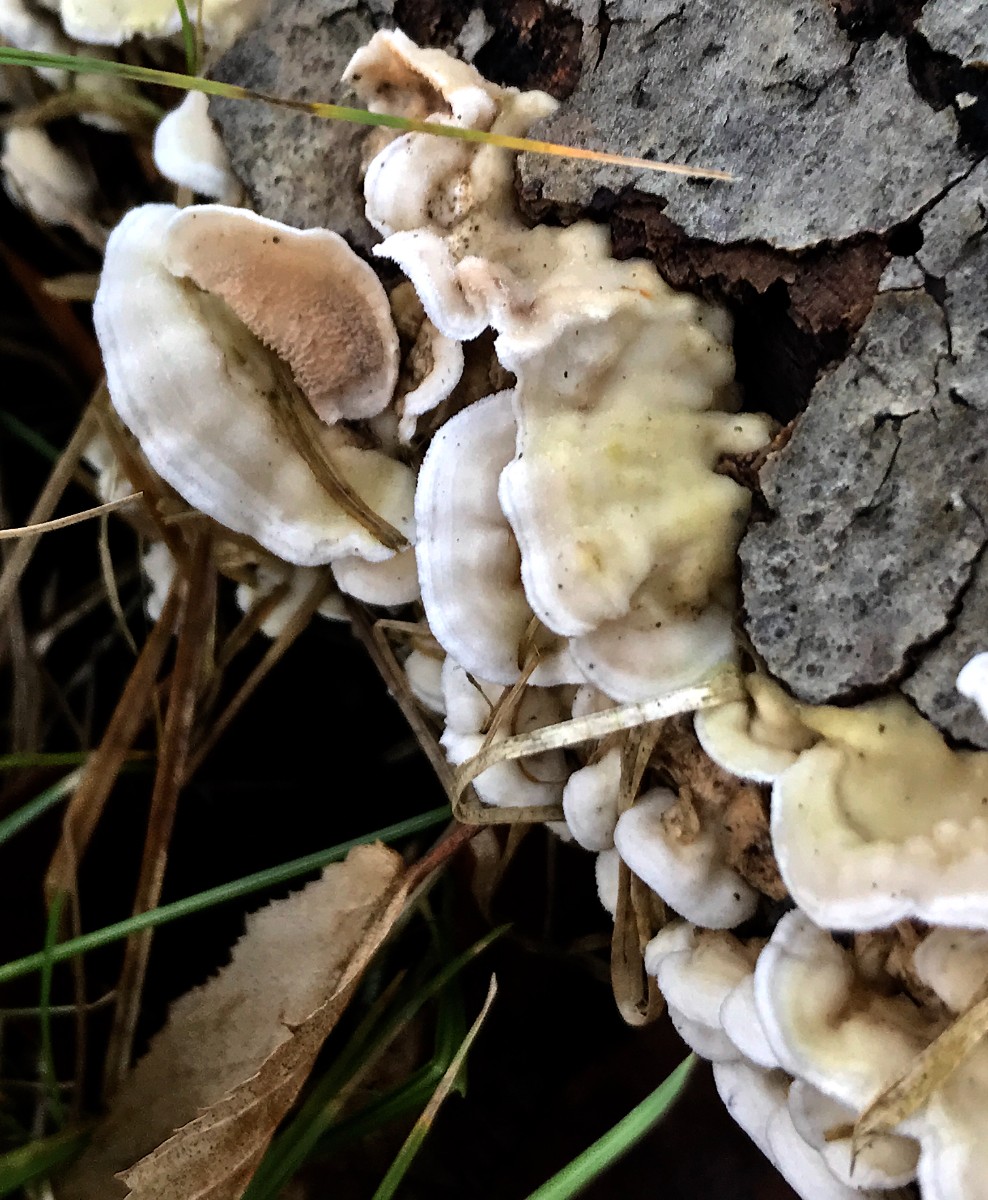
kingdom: Fungi
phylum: Basidiomycota
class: Agaricomycetes
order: Polyporales
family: Irpicaceae
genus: Byssomerulius
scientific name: Byssomerulius corium
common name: læder-åresvamp
